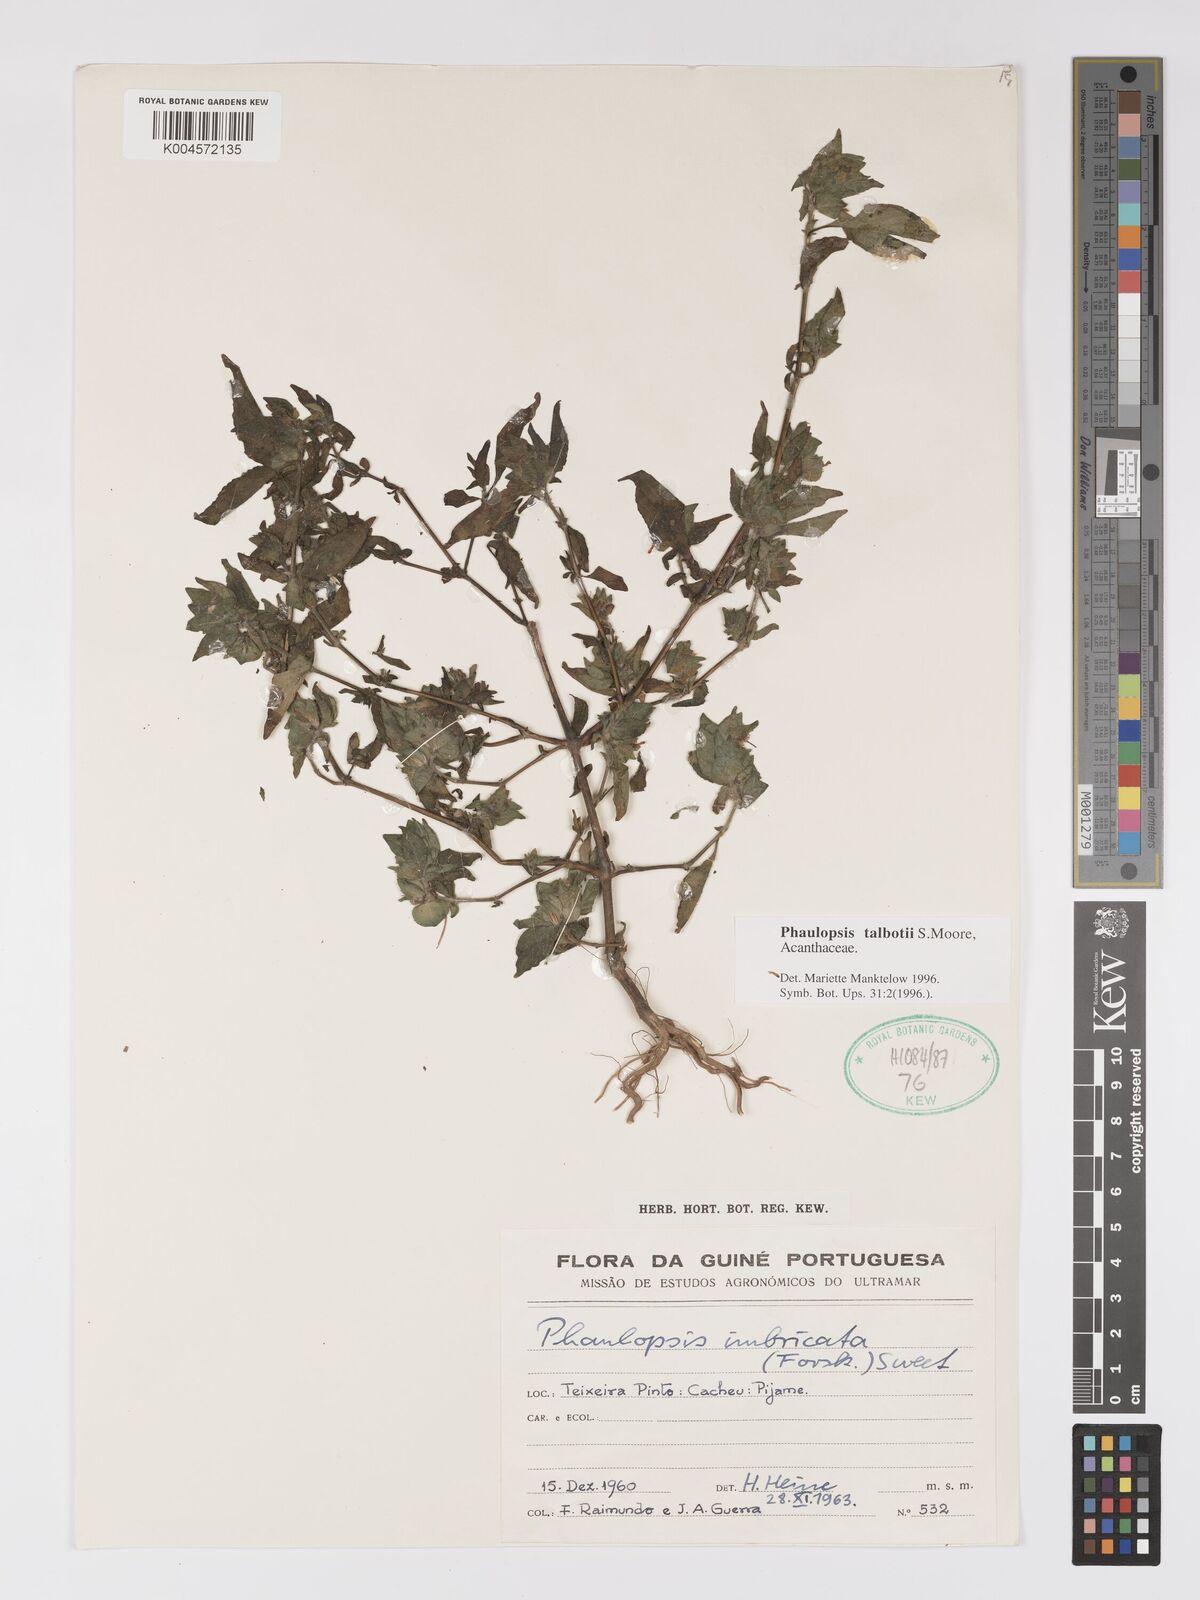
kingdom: Plantae
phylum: Tracheophyta
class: Magnoliopsida
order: Lamiales
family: Acanthaceae
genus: Phaulopsis
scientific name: Phaulopsis talbotii
